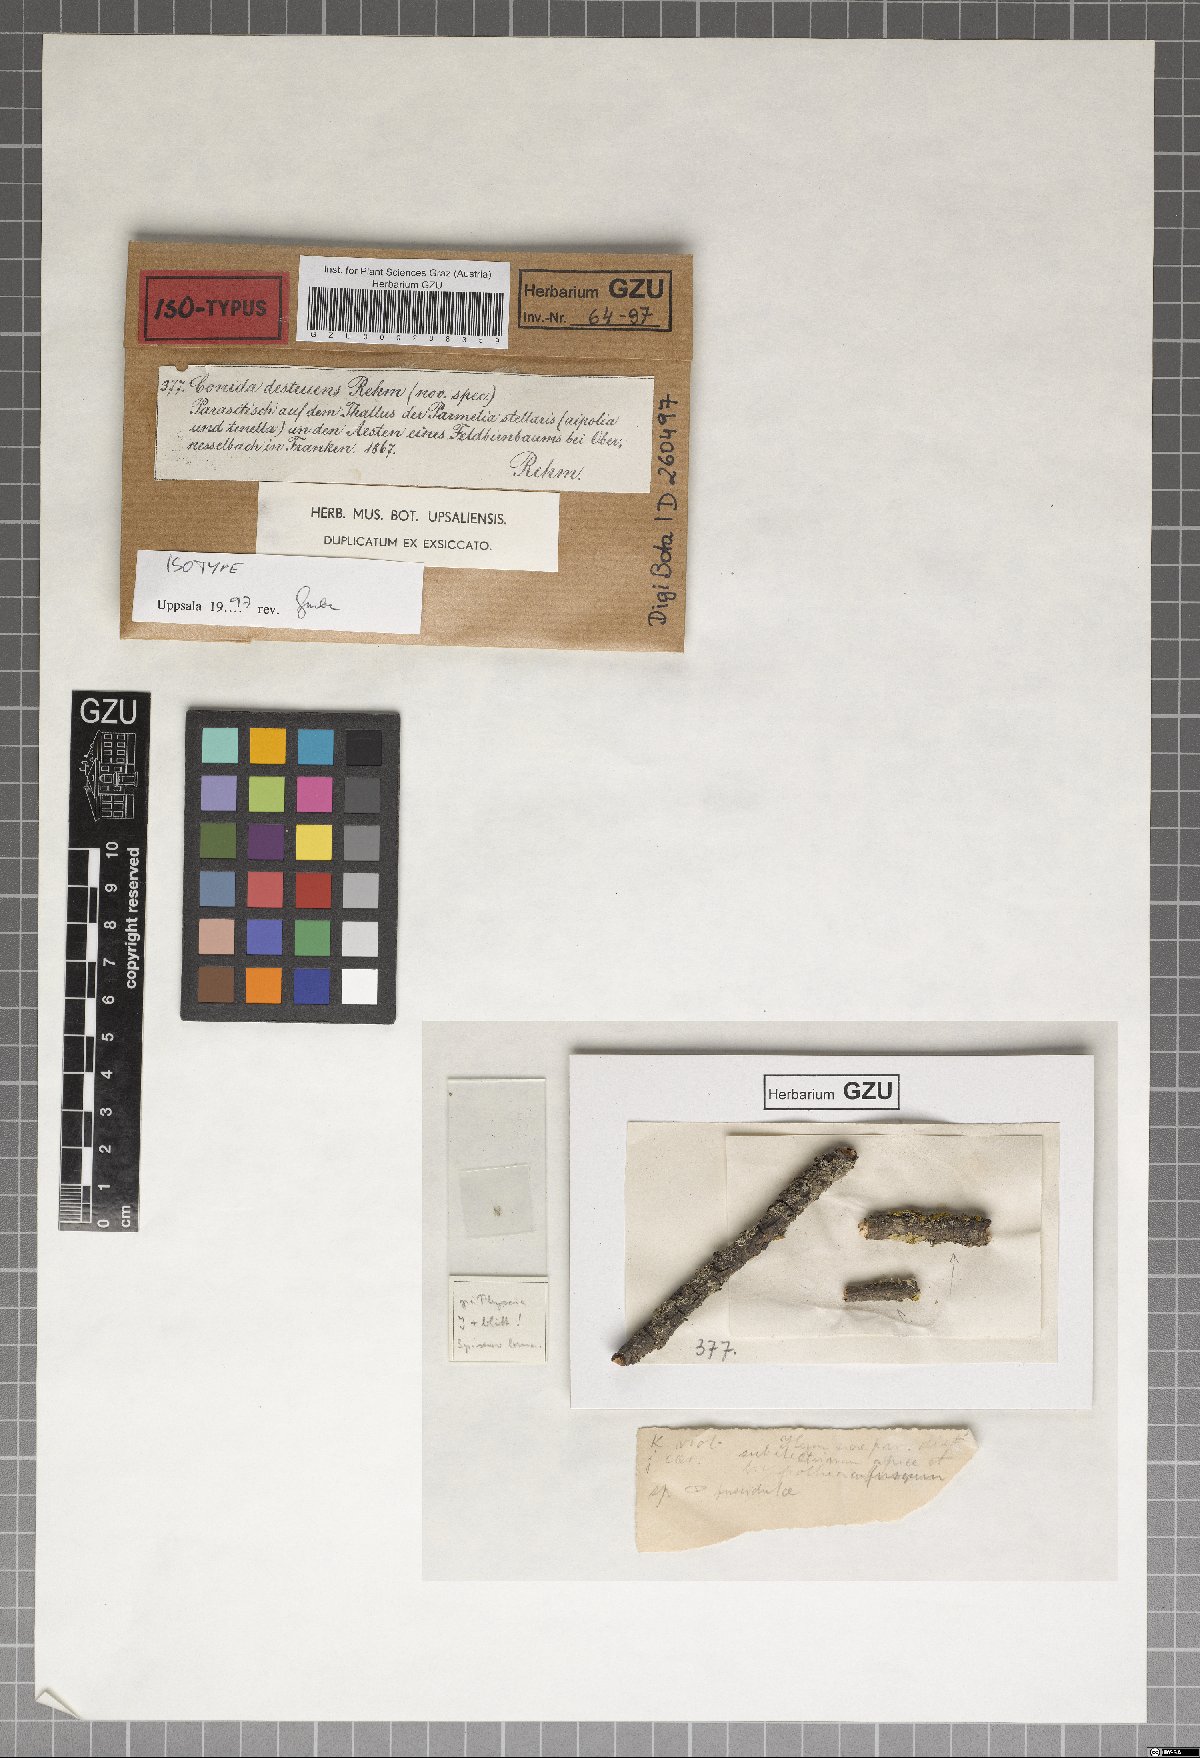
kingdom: Fungi
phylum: Ascomycota
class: Arthoniomycetes
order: Arthoniales
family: Arthoniaceae
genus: Arthonia
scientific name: Arthonia destruens
